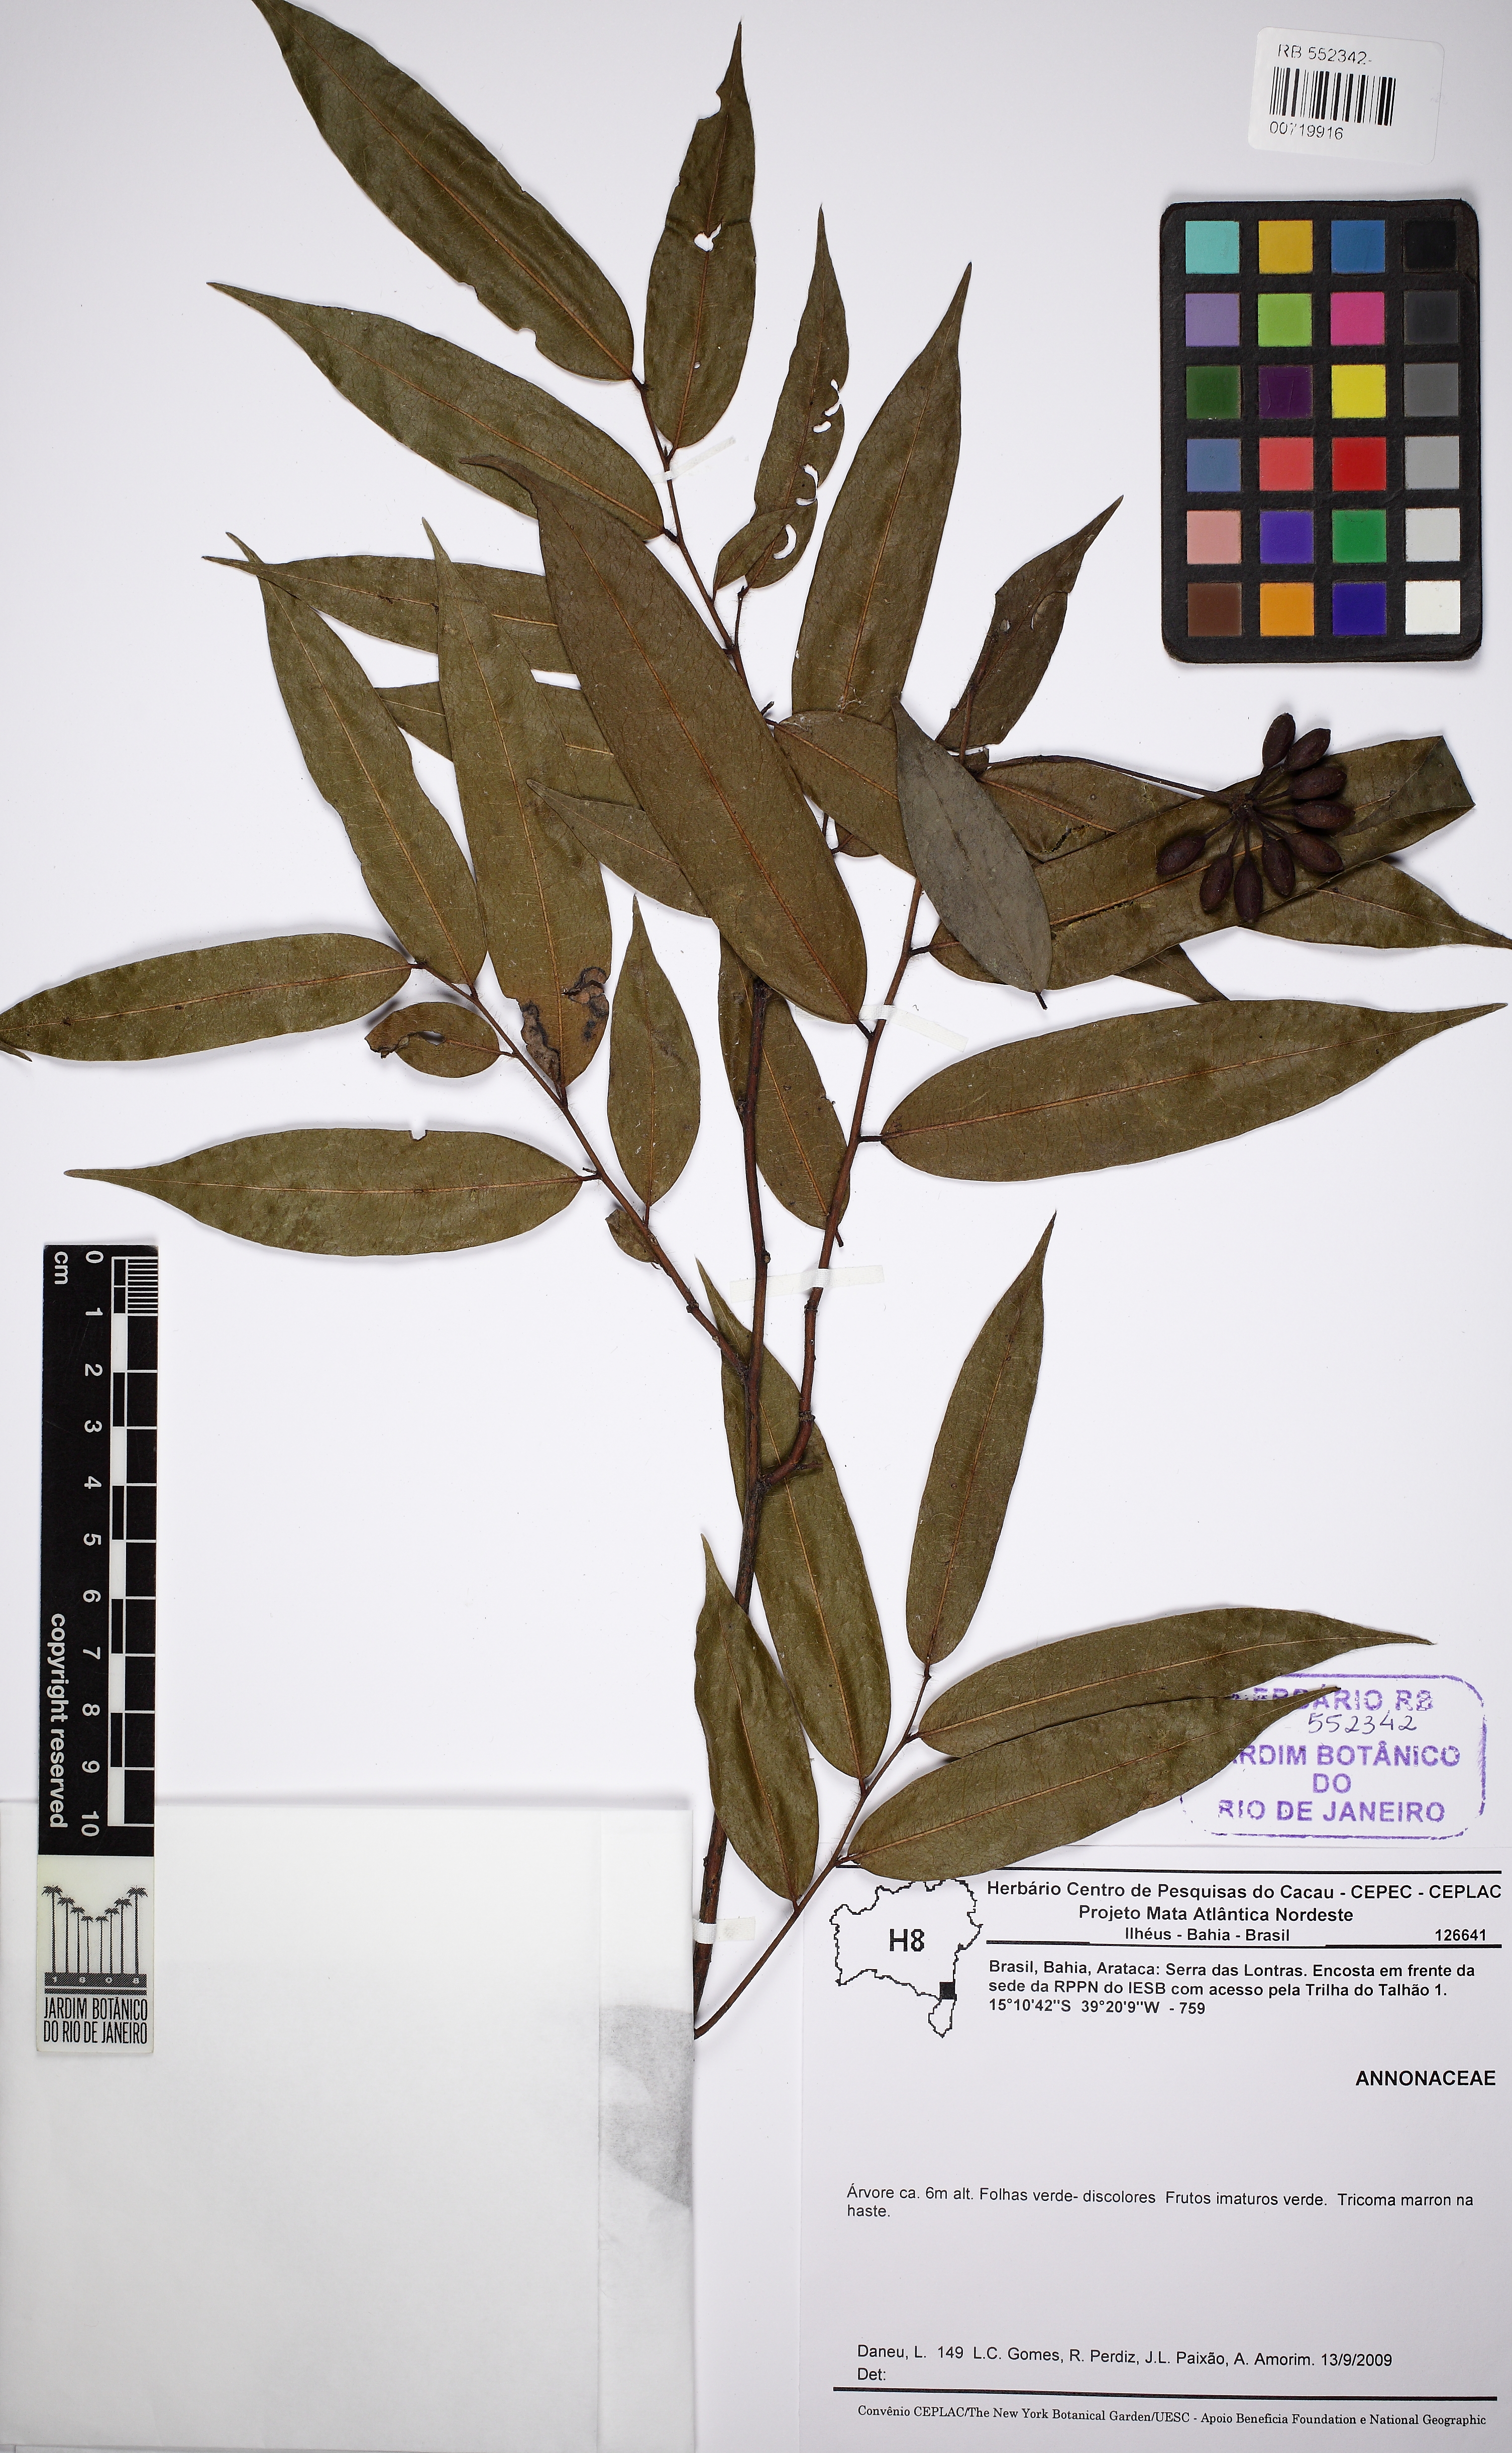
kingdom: Plantae
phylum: Tracheophyta
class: Magnoliopsida
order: Magnoliales
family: Annonaceae
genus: Guatteria
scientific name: Guatteria macropus
